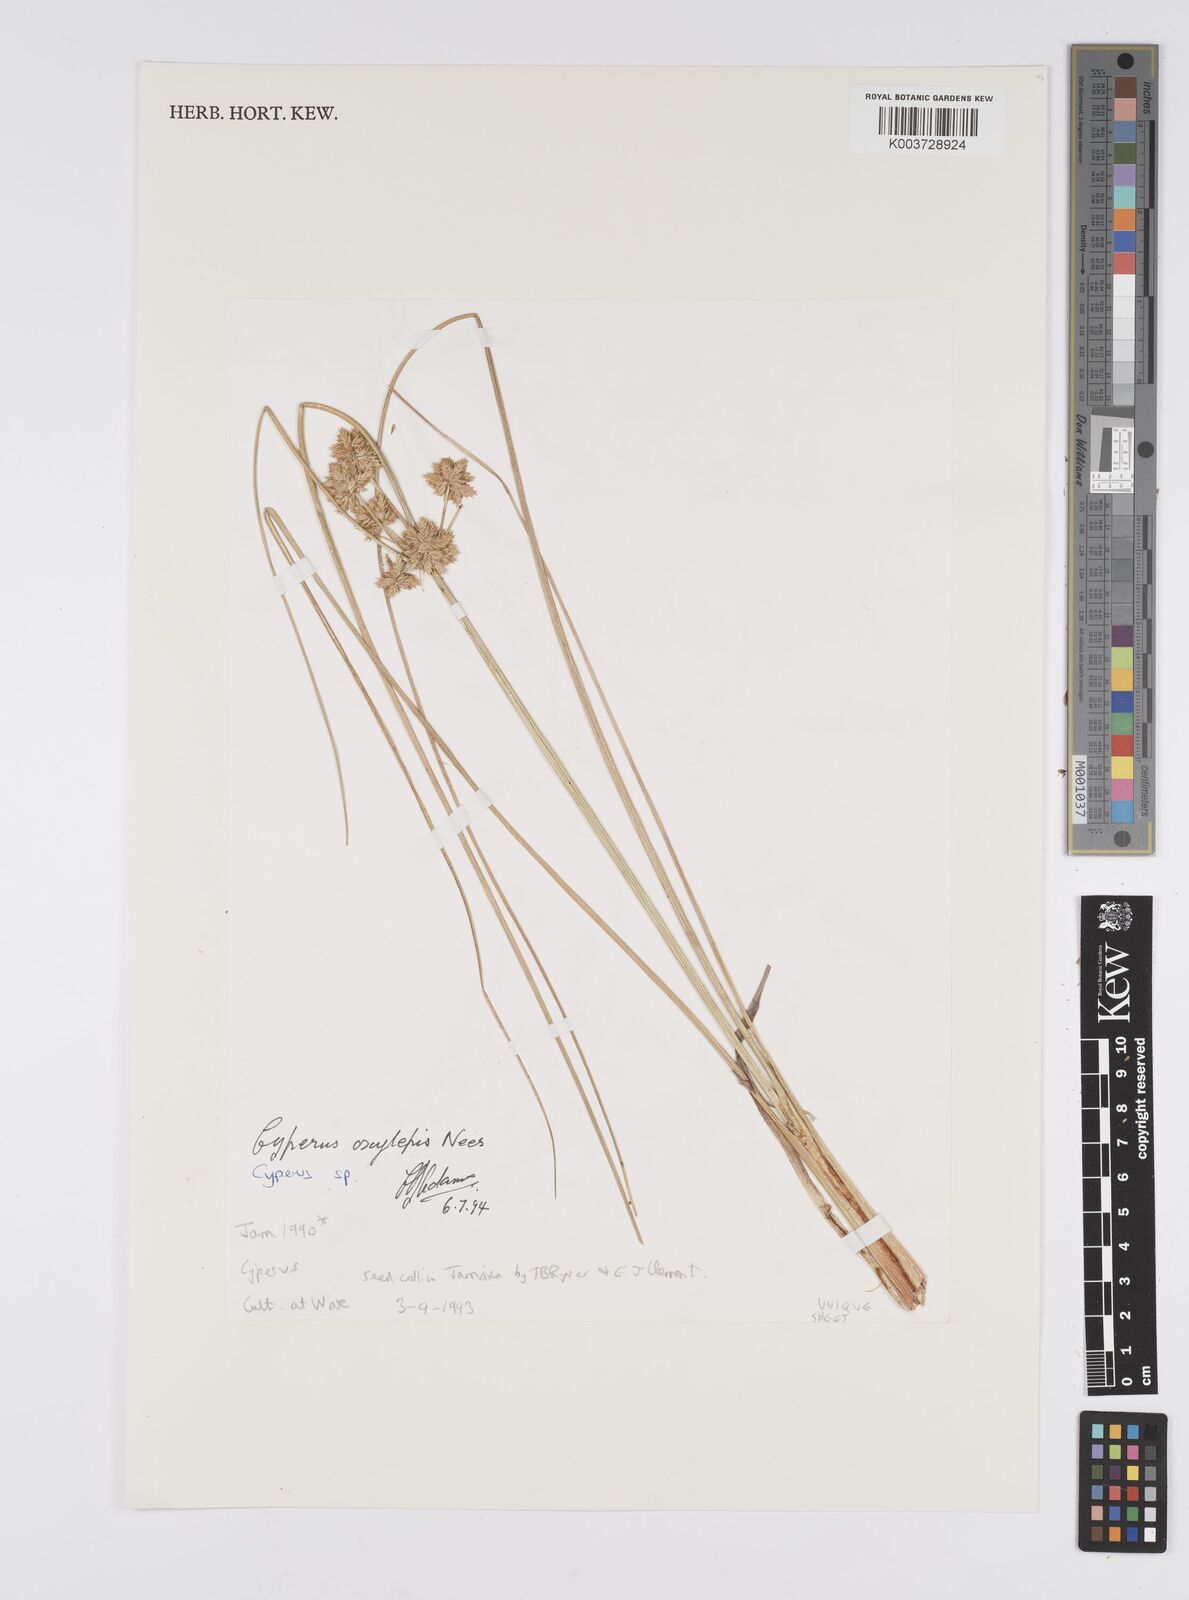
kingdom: Plantae
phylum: Tracheophyta
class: Liliopsida
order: Poales
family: Cyperaceae
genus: Cyperus
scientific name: Cyperus
